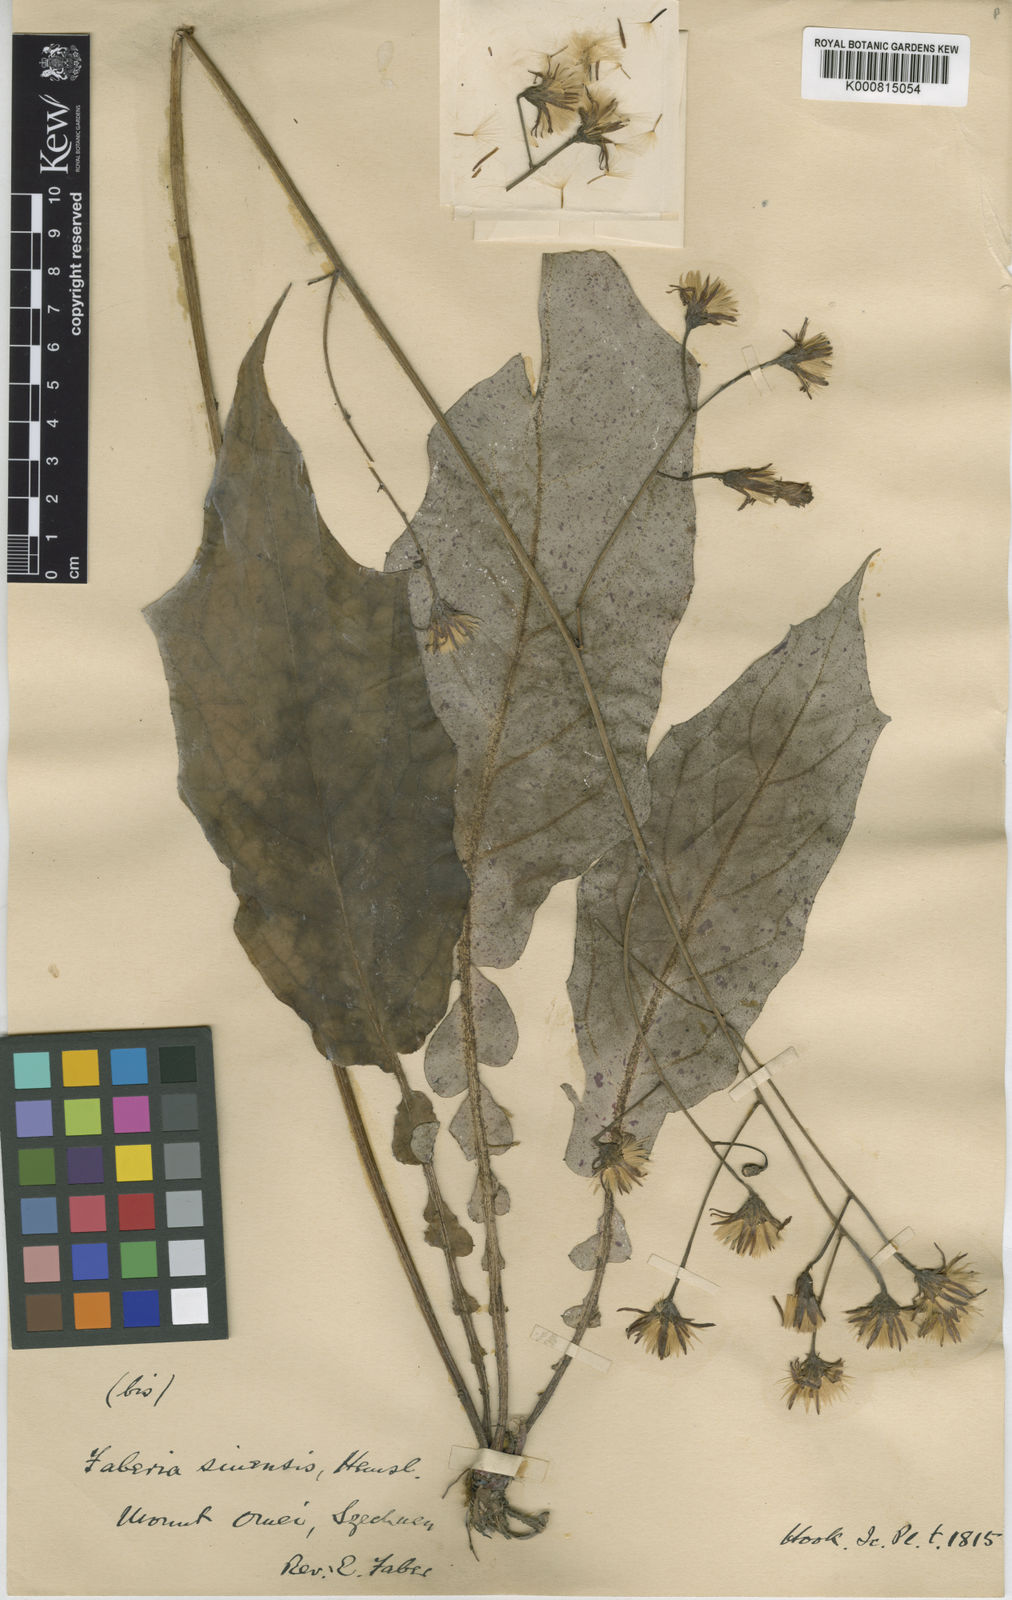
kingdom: Plantae
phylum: Tracheophyta
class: Magnoliopsida
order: Asterales
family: Asteraceae
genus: Prenanthes
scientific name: Prenanthes
